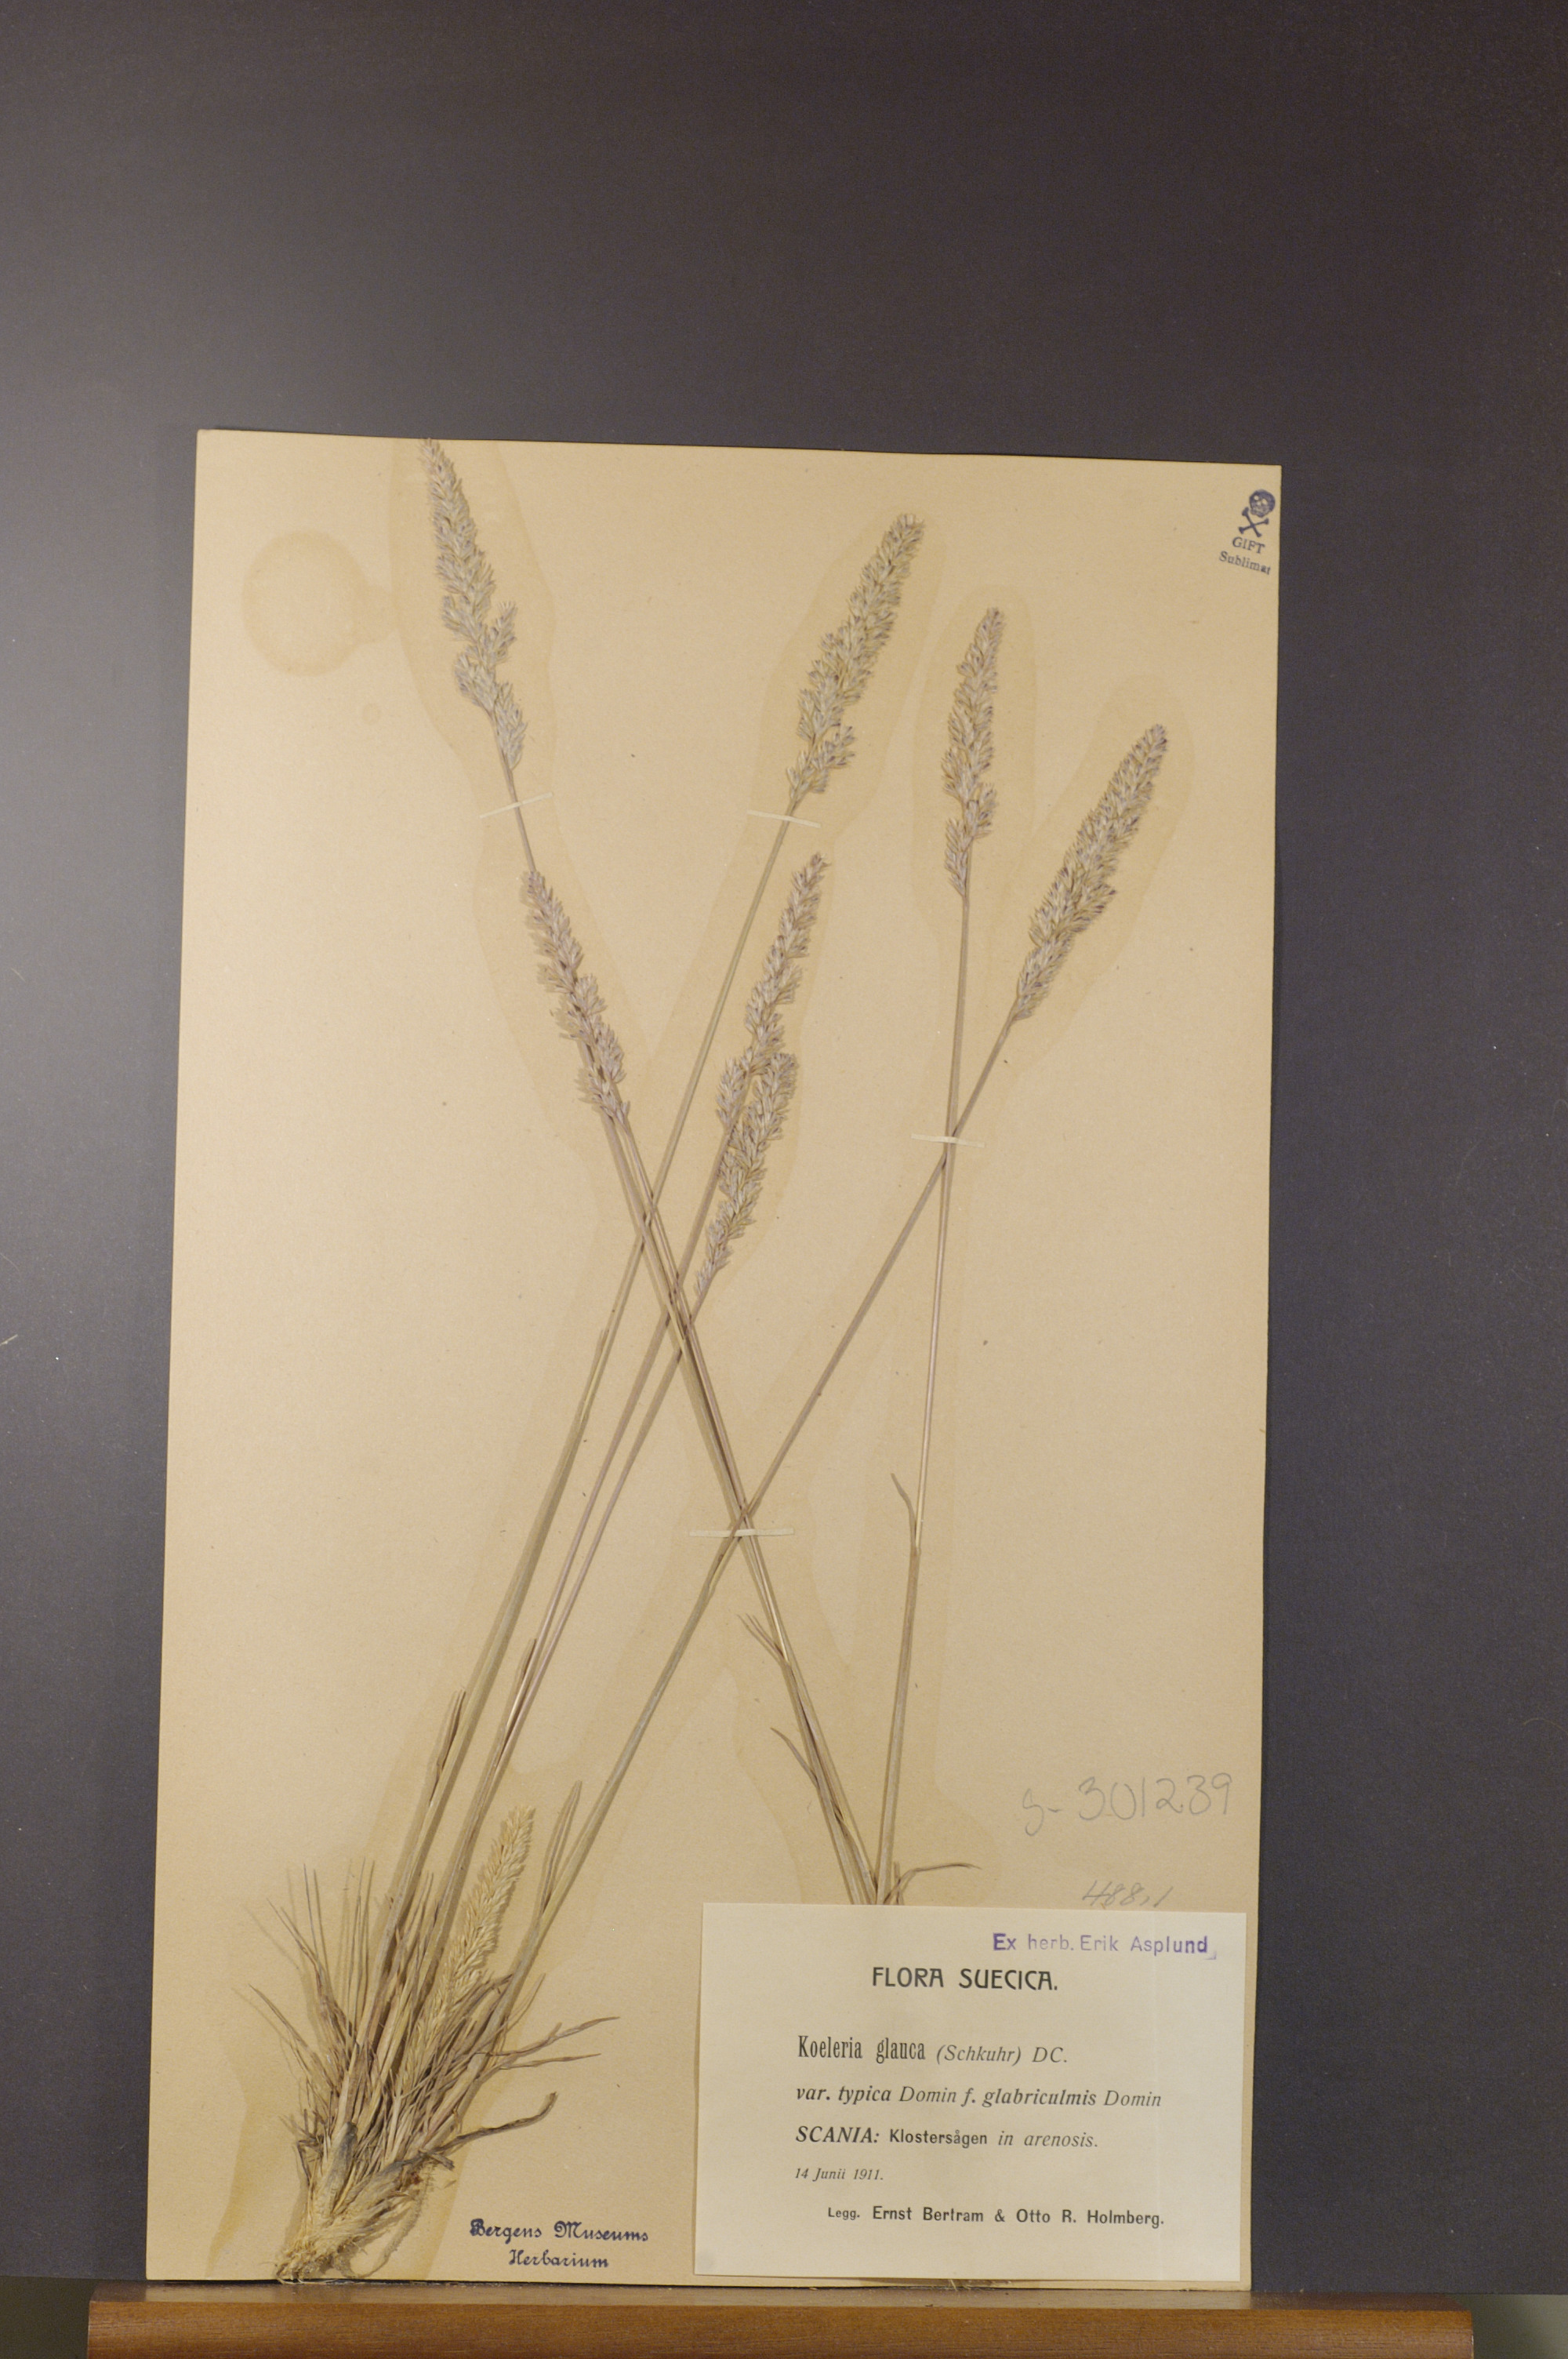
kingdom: Plantae
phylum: Tracheophyta
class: Liliopsida
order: Poales
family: Poaceae
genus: Koeleria
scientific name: Koeleria glauca
